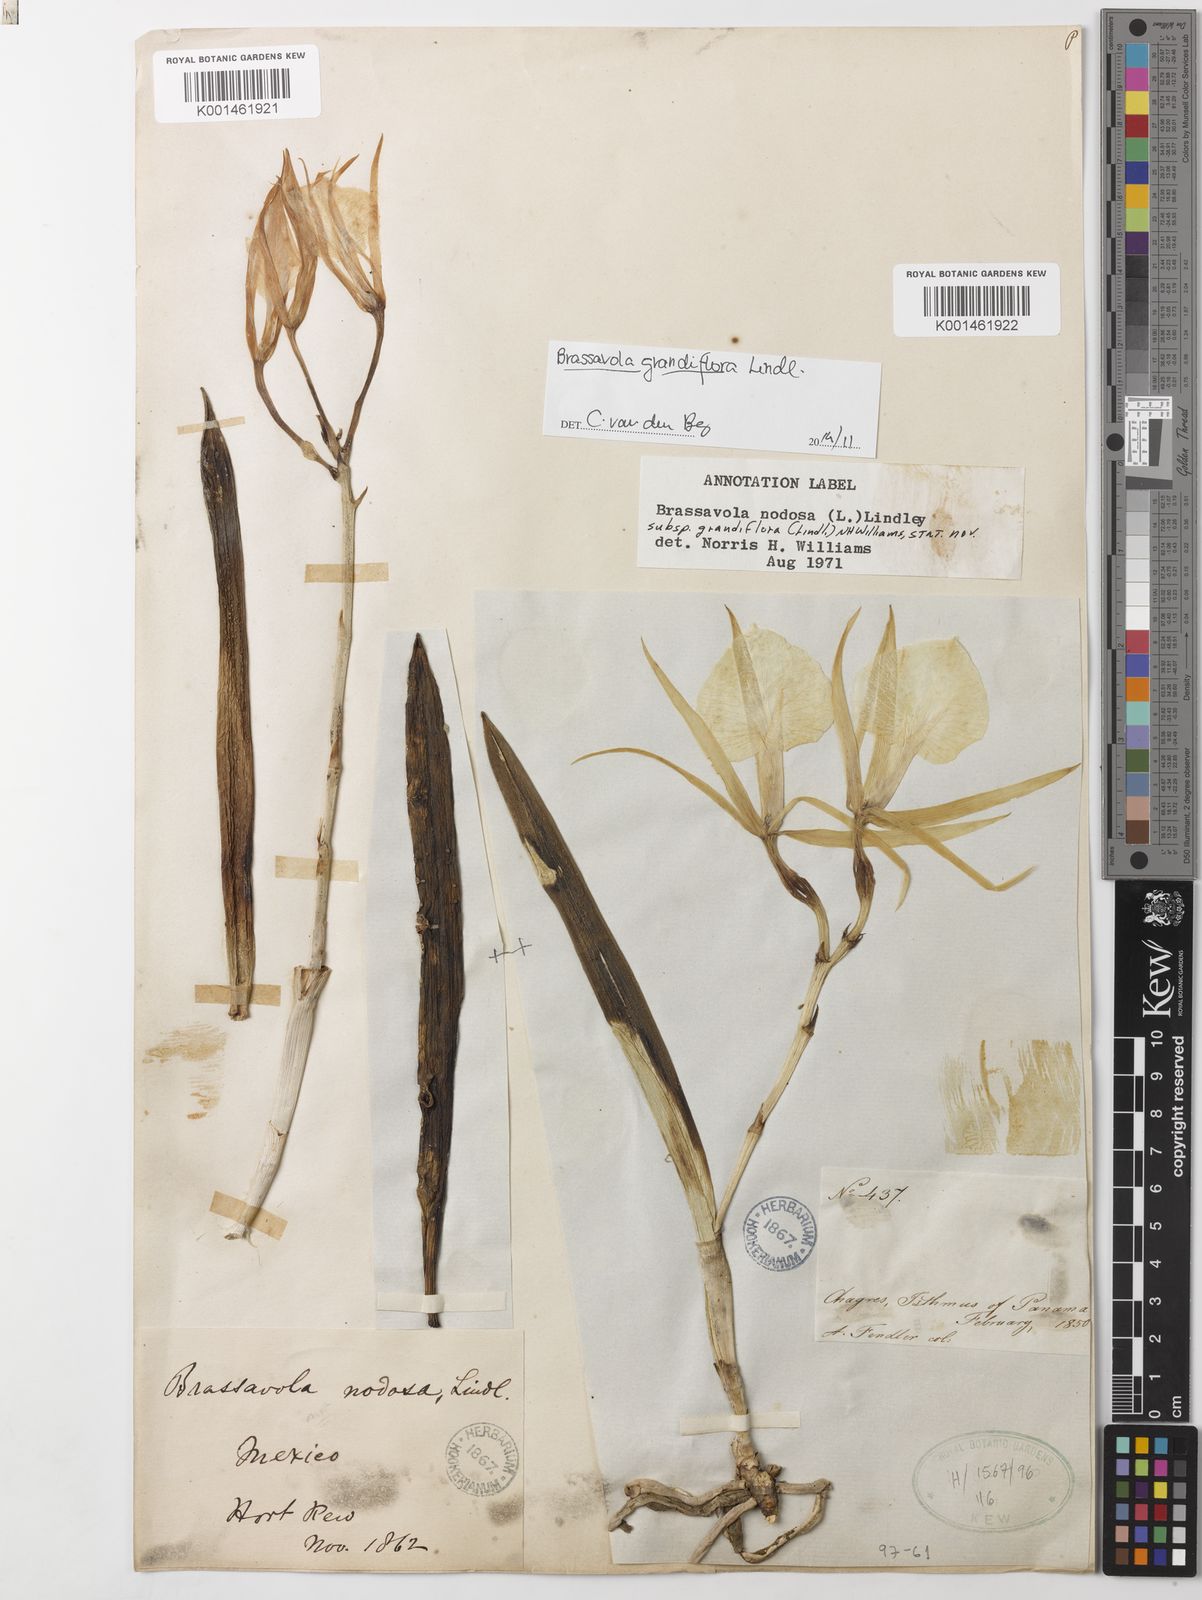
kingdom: Plantae
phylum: Tracheophyta
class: Liliopsida
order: Asparagales
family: Orchidaceae
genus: Brassavola
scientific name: Brassavola nodosa
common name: Lady of the night
